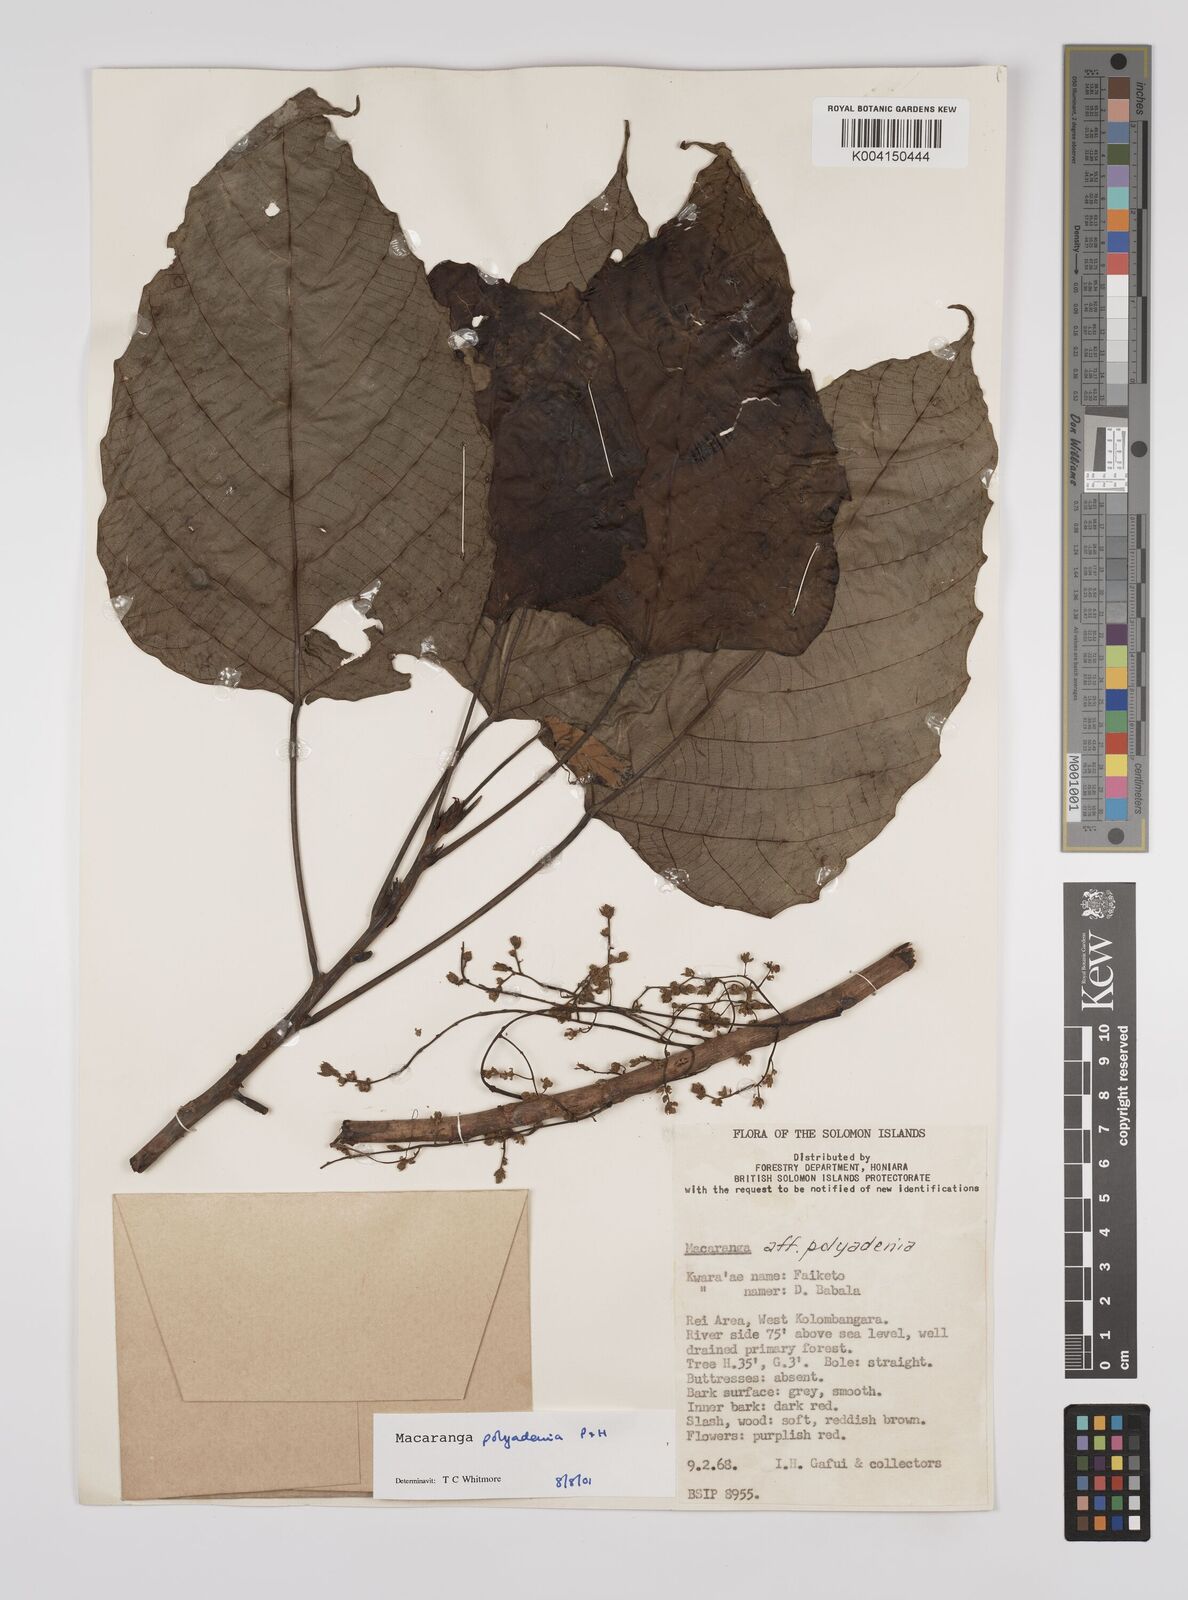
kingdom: Plantae
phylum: Tracheophyta
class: Magnoliopsida
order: Malpighiales
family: Euphorbiaceae
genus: Macaranga
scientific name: Macaranga polyadenia
